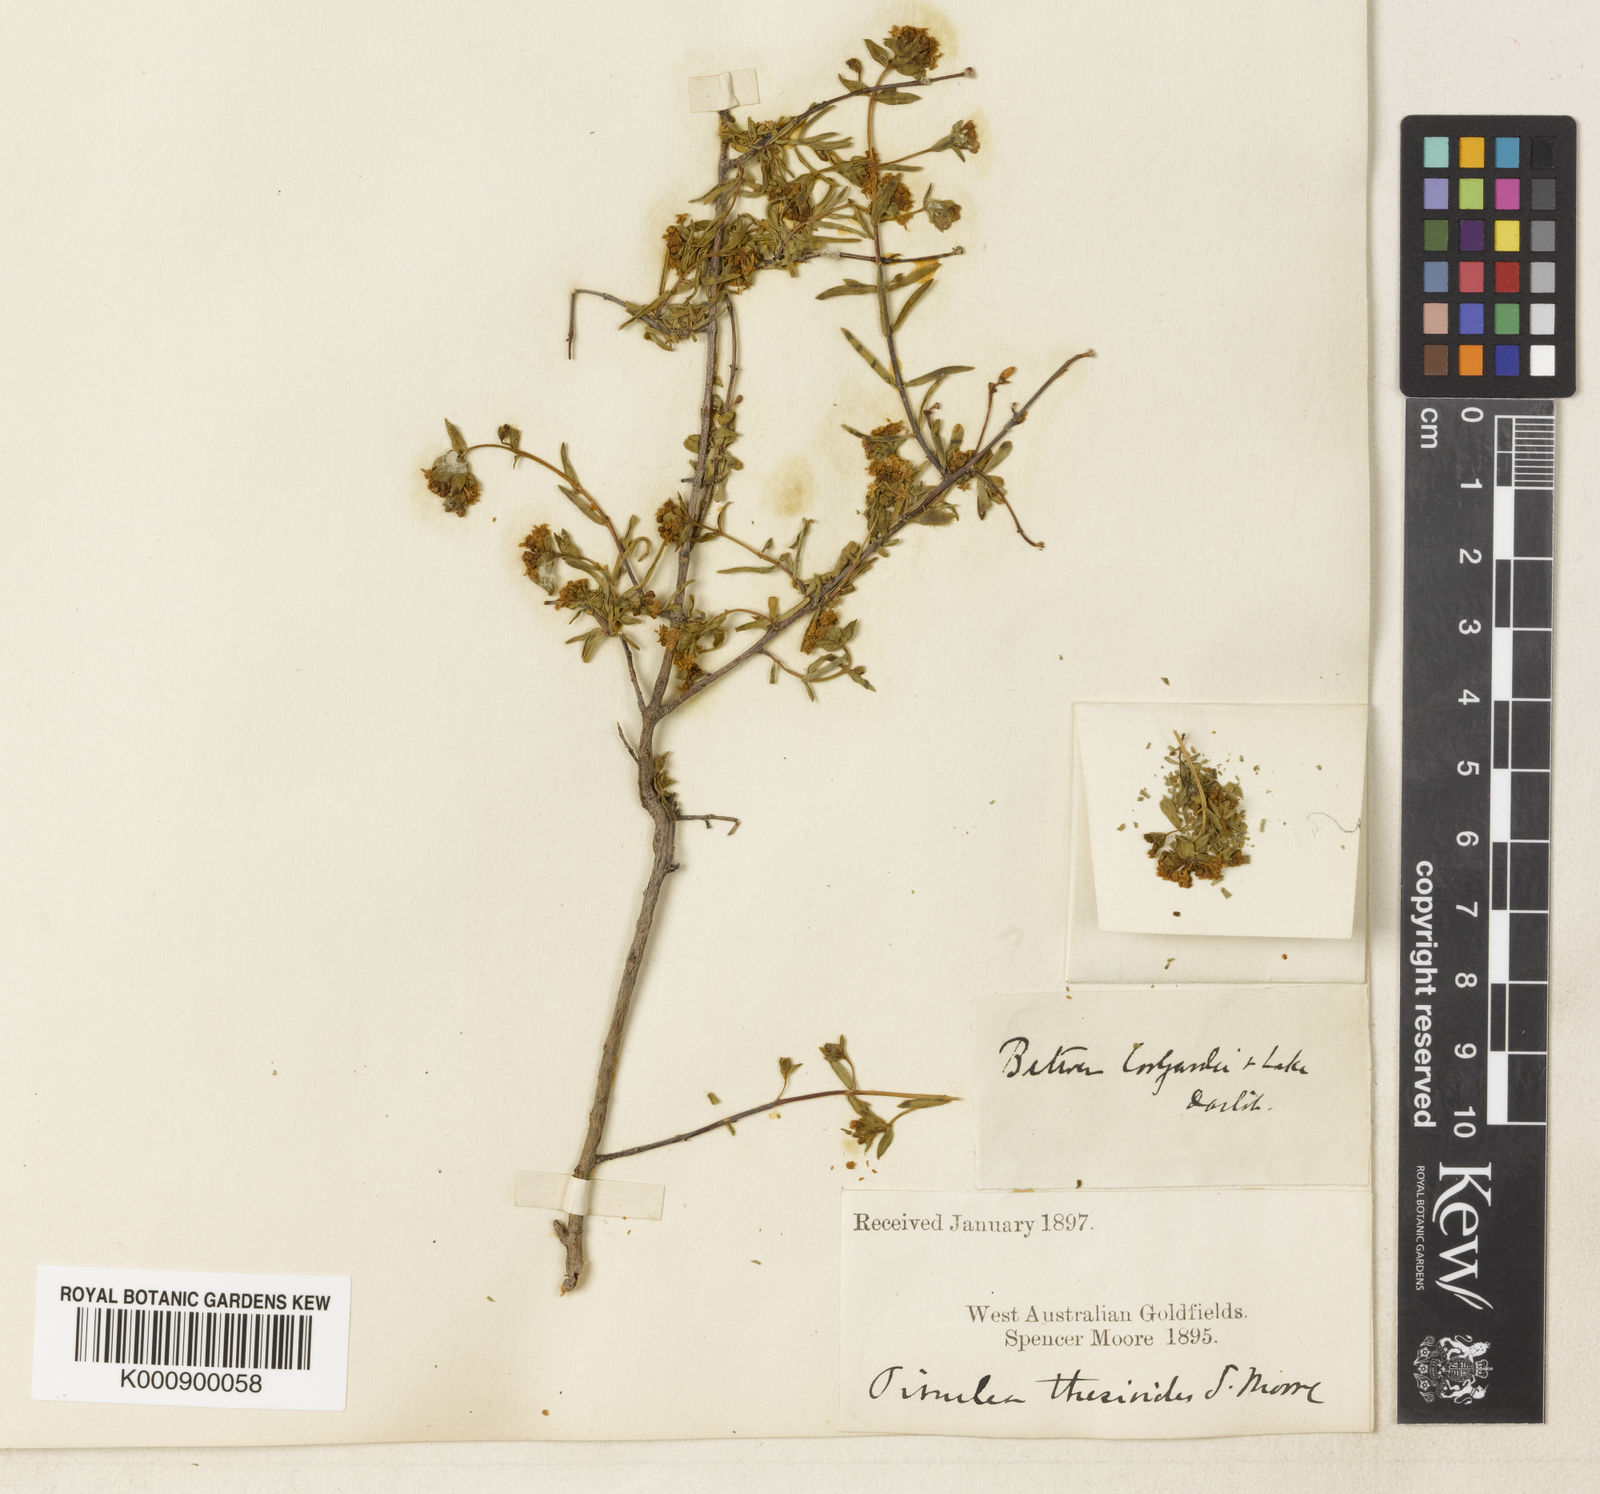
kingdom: Plantae
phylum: Tracheophyta
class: Magnoliopsida
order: Malvales
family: Thymelaeaceae
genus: Pimelea
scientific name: Pimelea spiculigera
